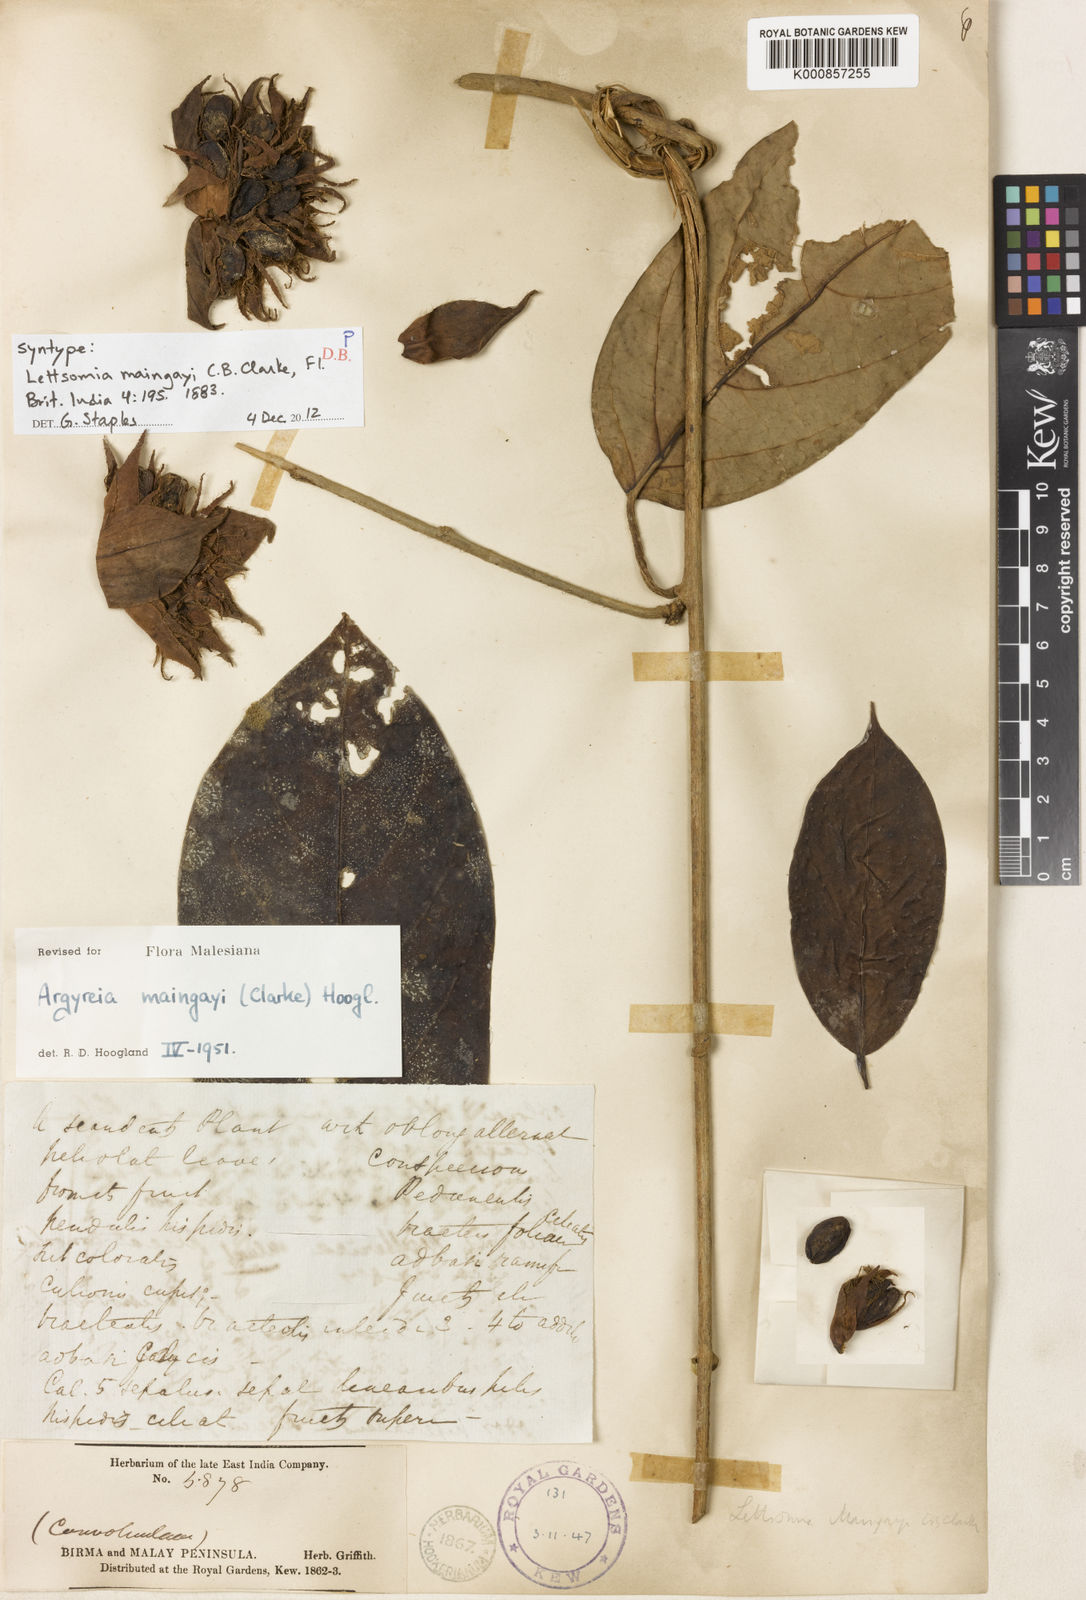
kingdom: Plantae
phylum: Tracheophyta
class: Magnoliopsida
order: Solanales
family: Convolvulaceae
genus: Argyreia
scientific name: Argyreia maingayi
